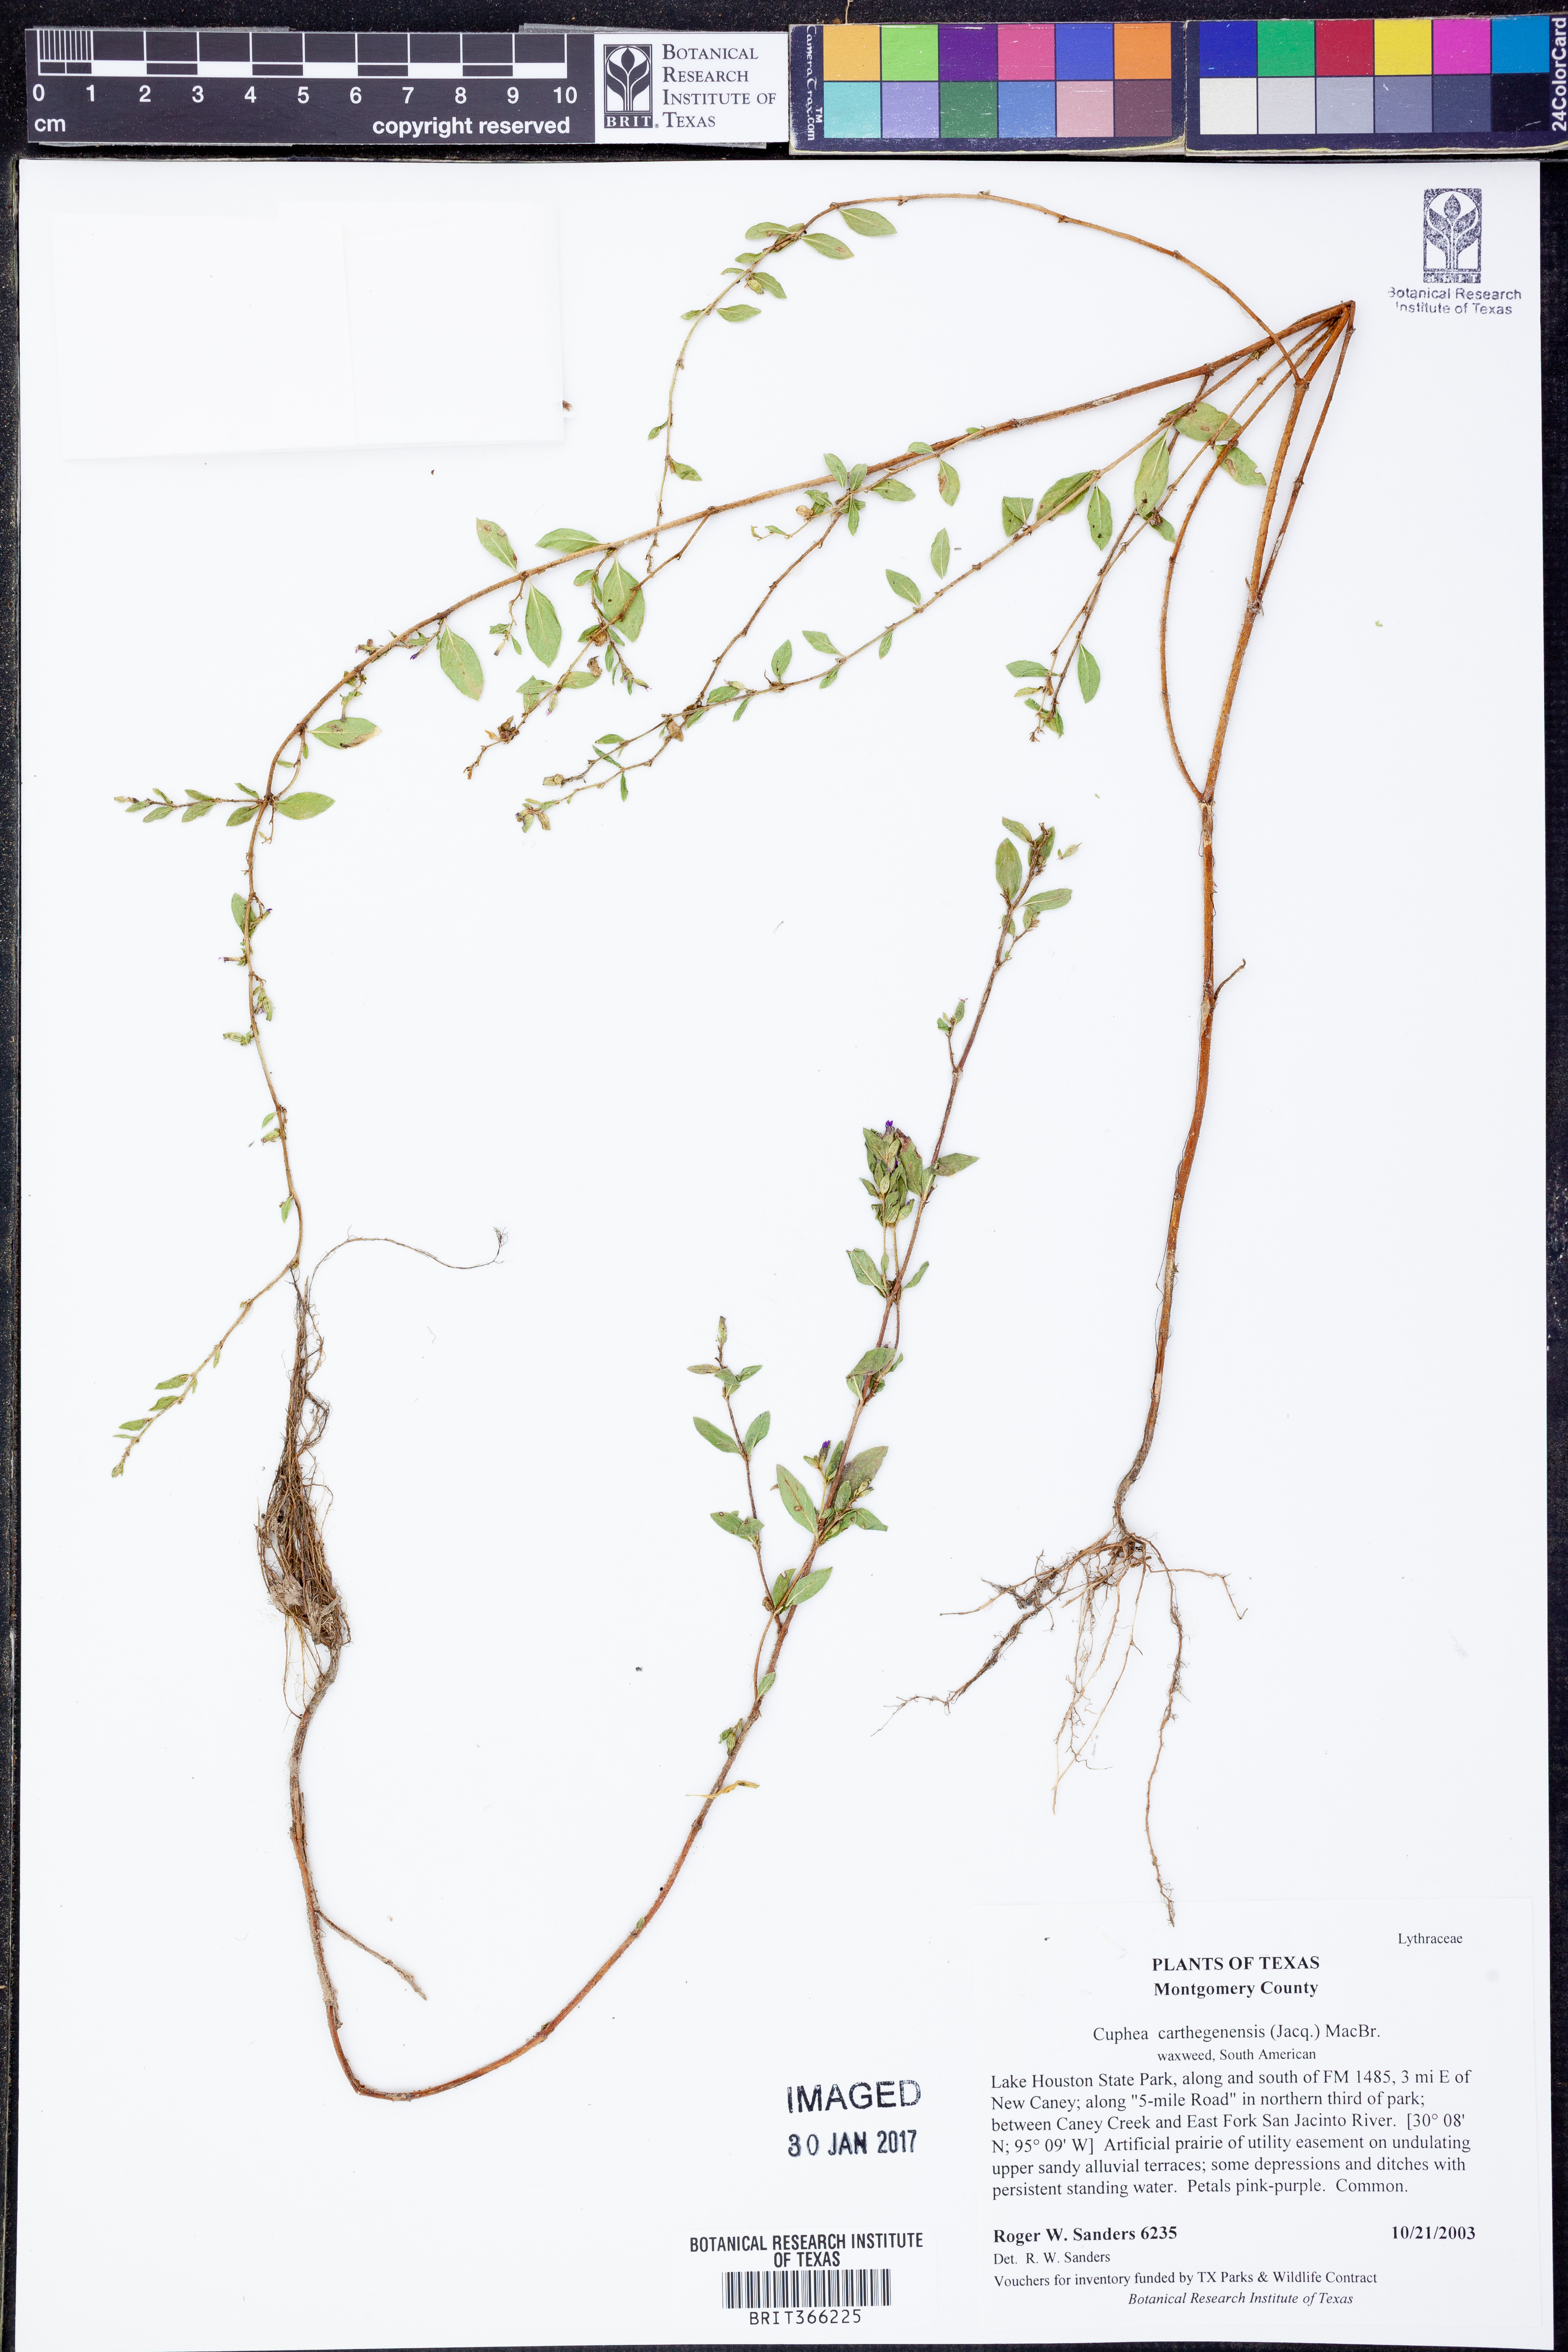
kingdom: Plantae
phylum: Tracheophyta
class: Magnoliopsida
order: Myrtales
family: Lythraceae
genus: Cuphea
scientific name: Cuphea carthagenensis
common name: Colombian waxweed
